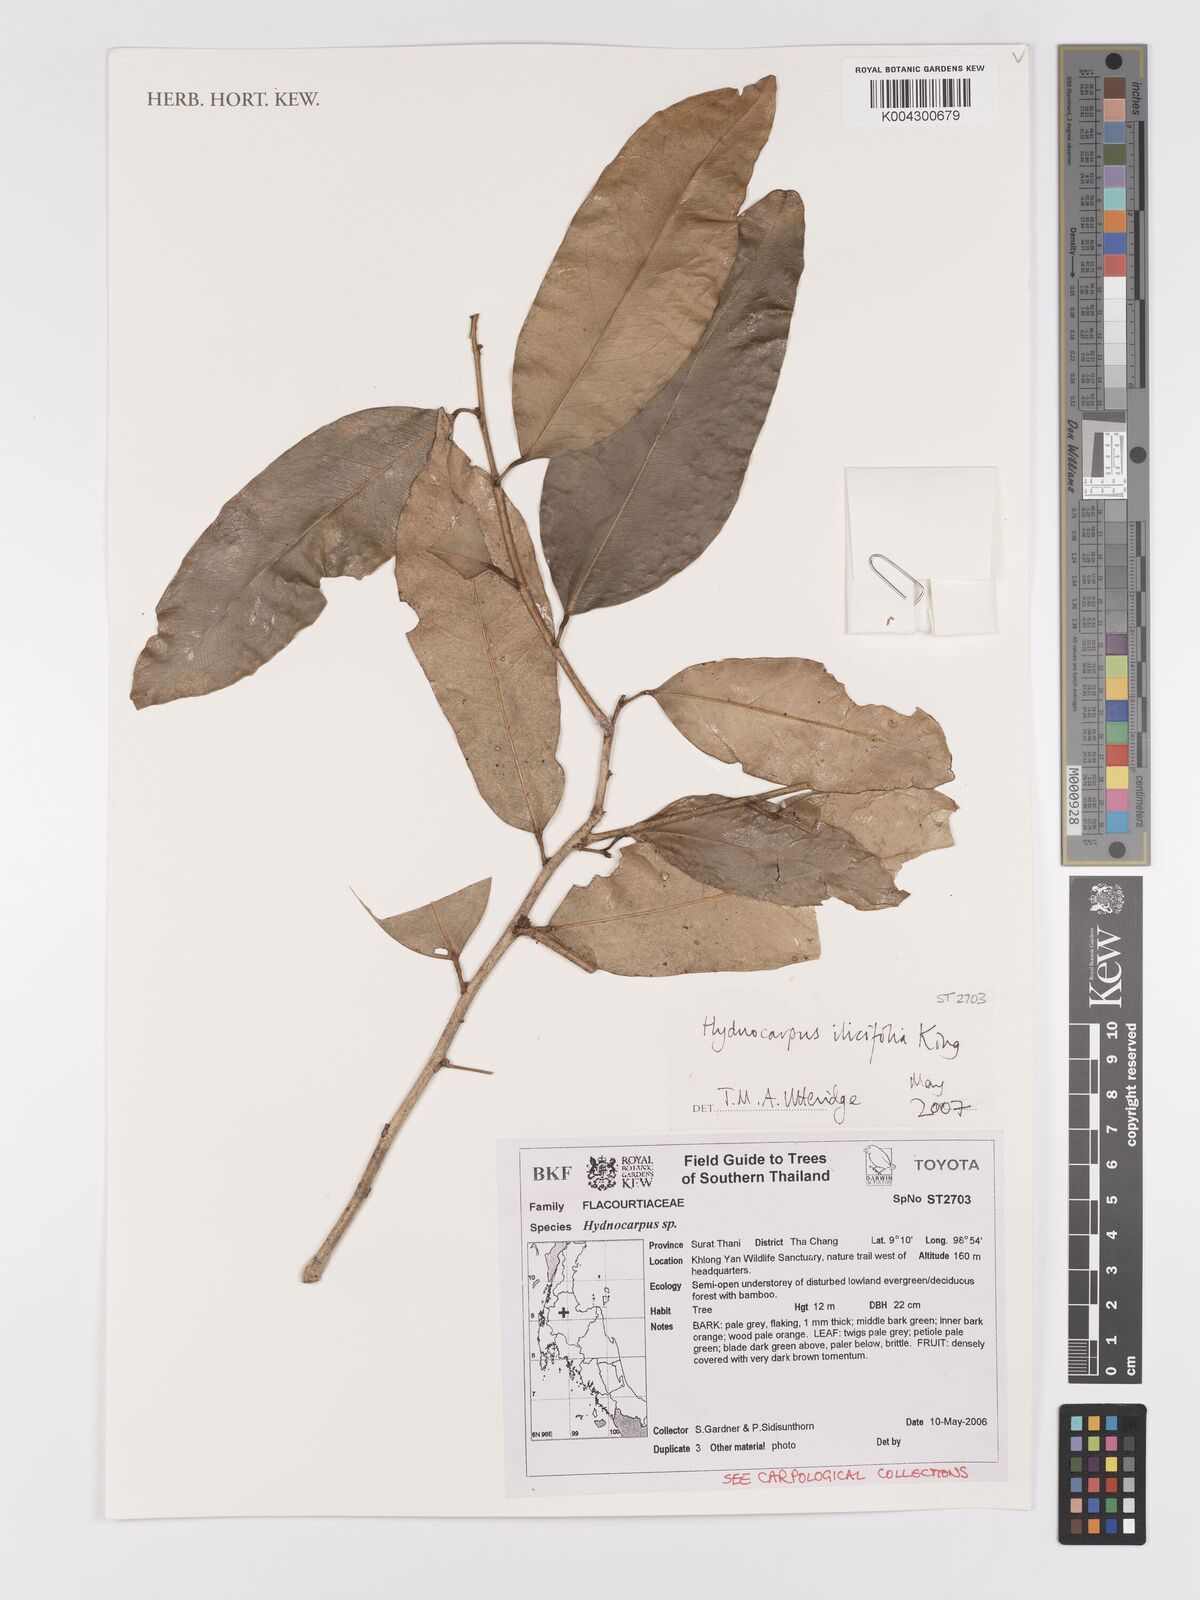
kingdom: Plantae
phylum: Tracheophyta
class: Magnoliopsida
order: Malpighiales
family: Achariaceae
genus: Hydnocarpus
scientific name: Hydnocarpus ilicifolius
